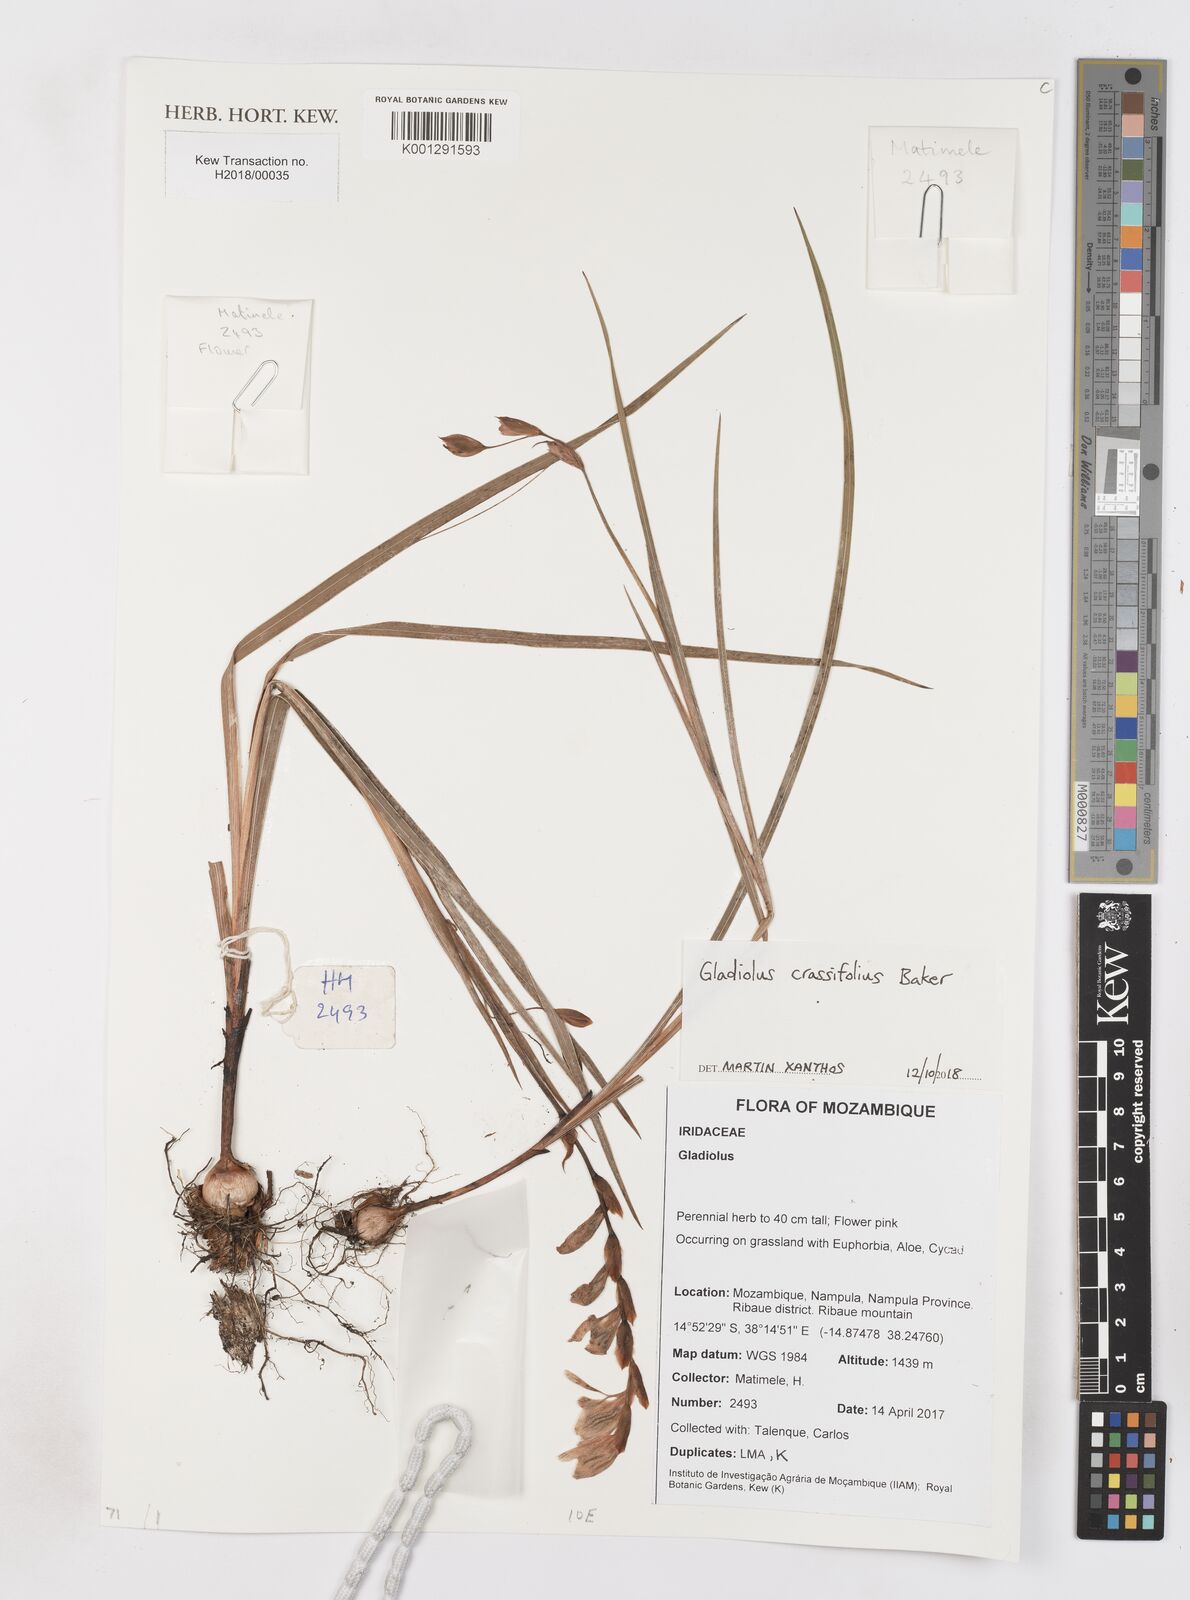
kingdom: Plantae
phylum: Tracheophyta
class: Liliopsida
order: Asparagales
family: Iridaceae
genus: Gladiolus
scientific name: Gladiolus crassifolius
